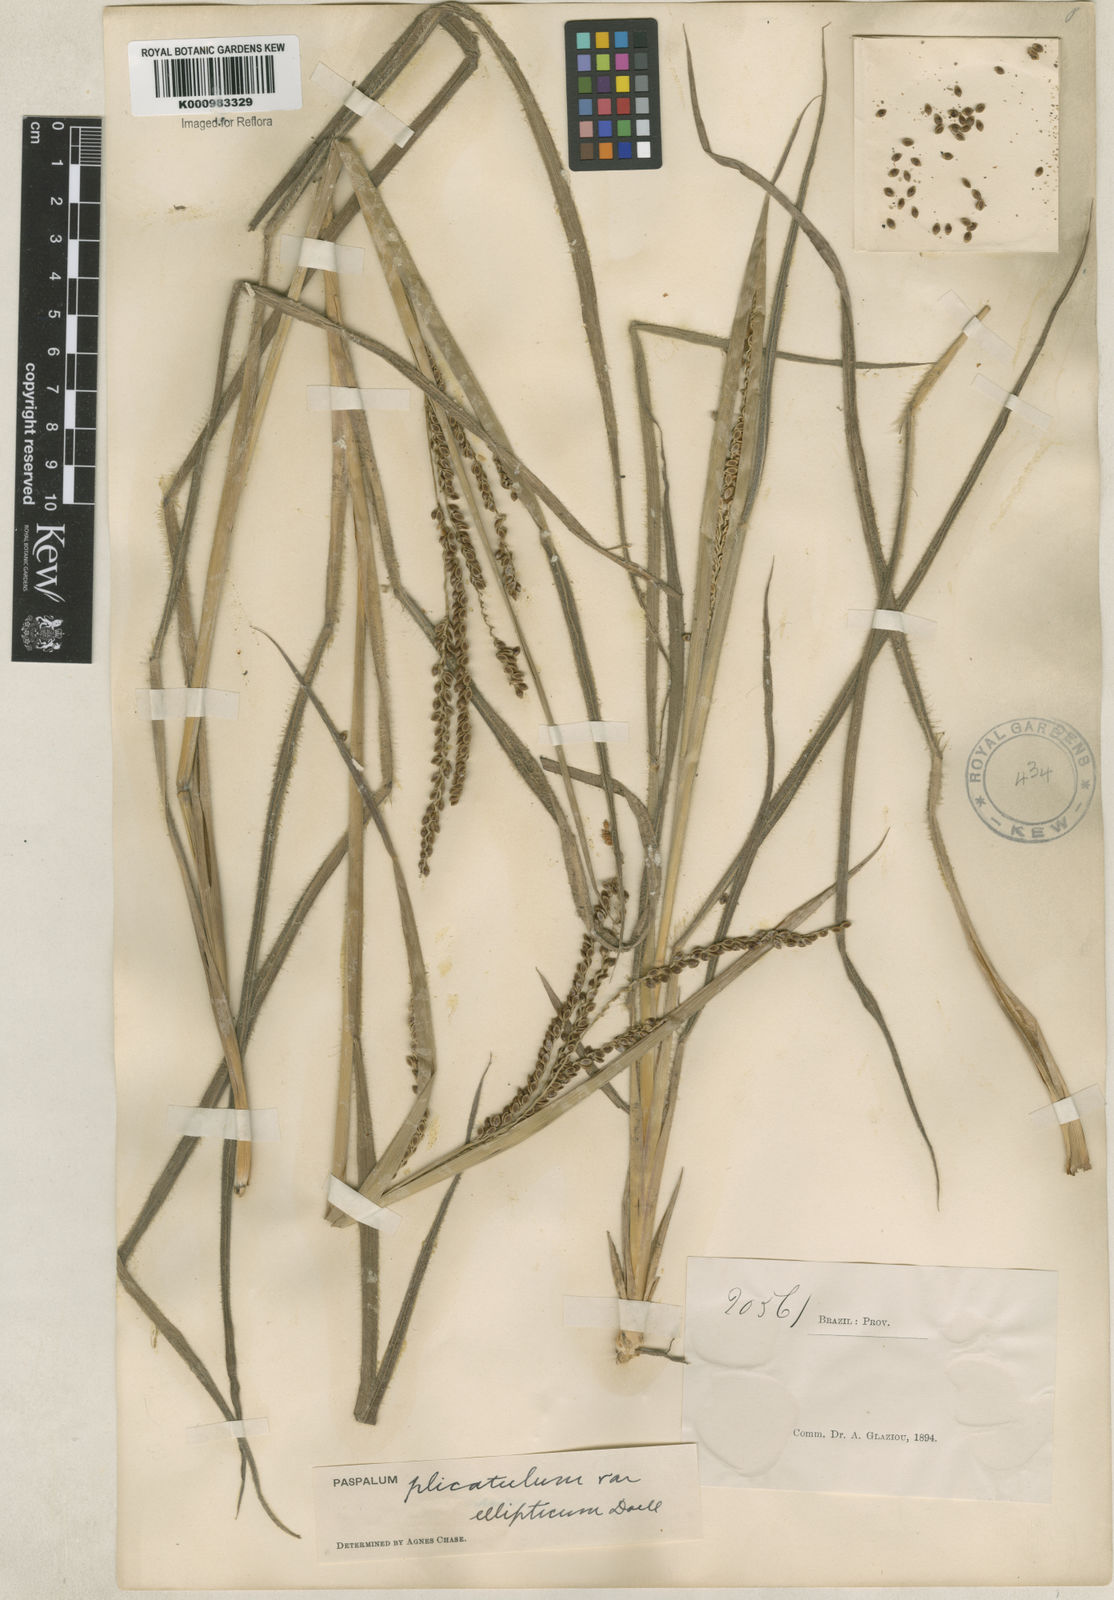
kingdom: Plantae
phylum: Tracheophyta
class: Liliopsida
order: Poales
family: Poaceae
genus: Paspalum
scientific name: Paspalum plicatulum
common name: Top paspalum
